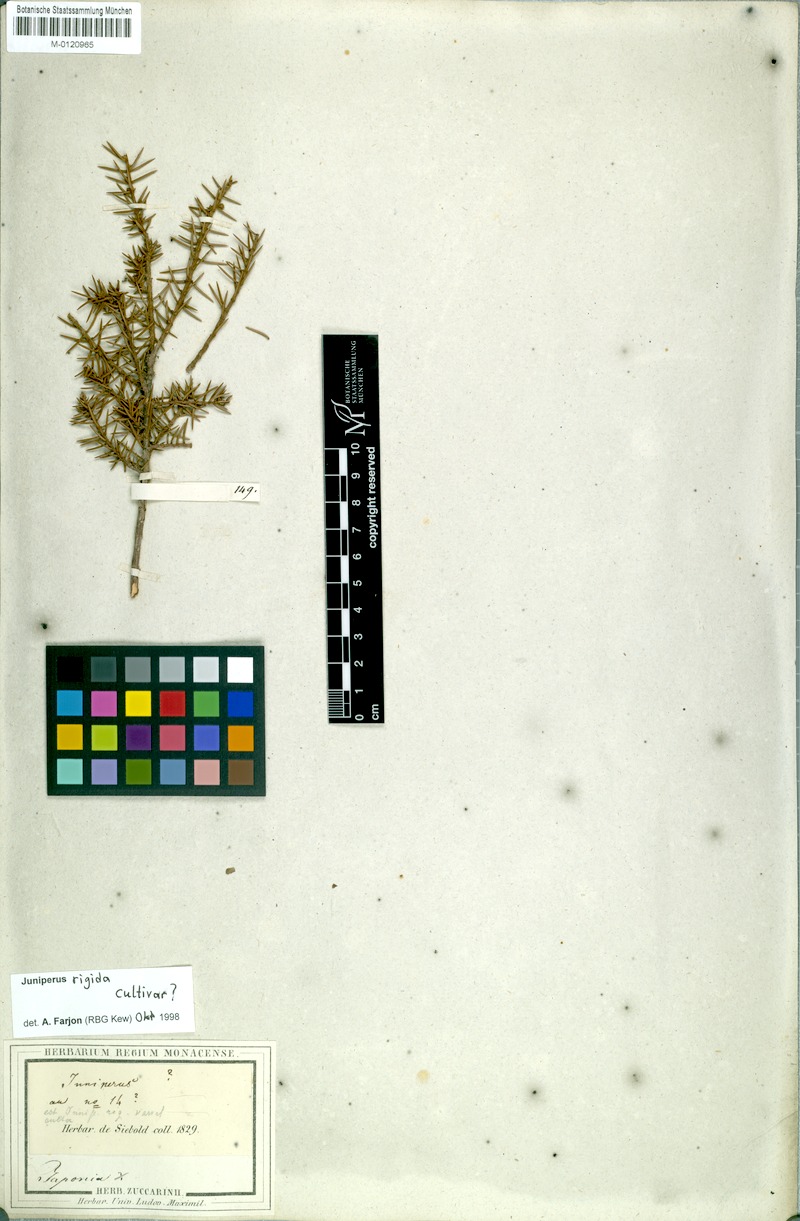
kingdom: Plantae
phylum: Tracheophyta
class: Pinopsida
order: Pinales
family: Cupressaceae
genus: Juniperus
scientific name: Juniperus rigida
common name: Needle juniper
